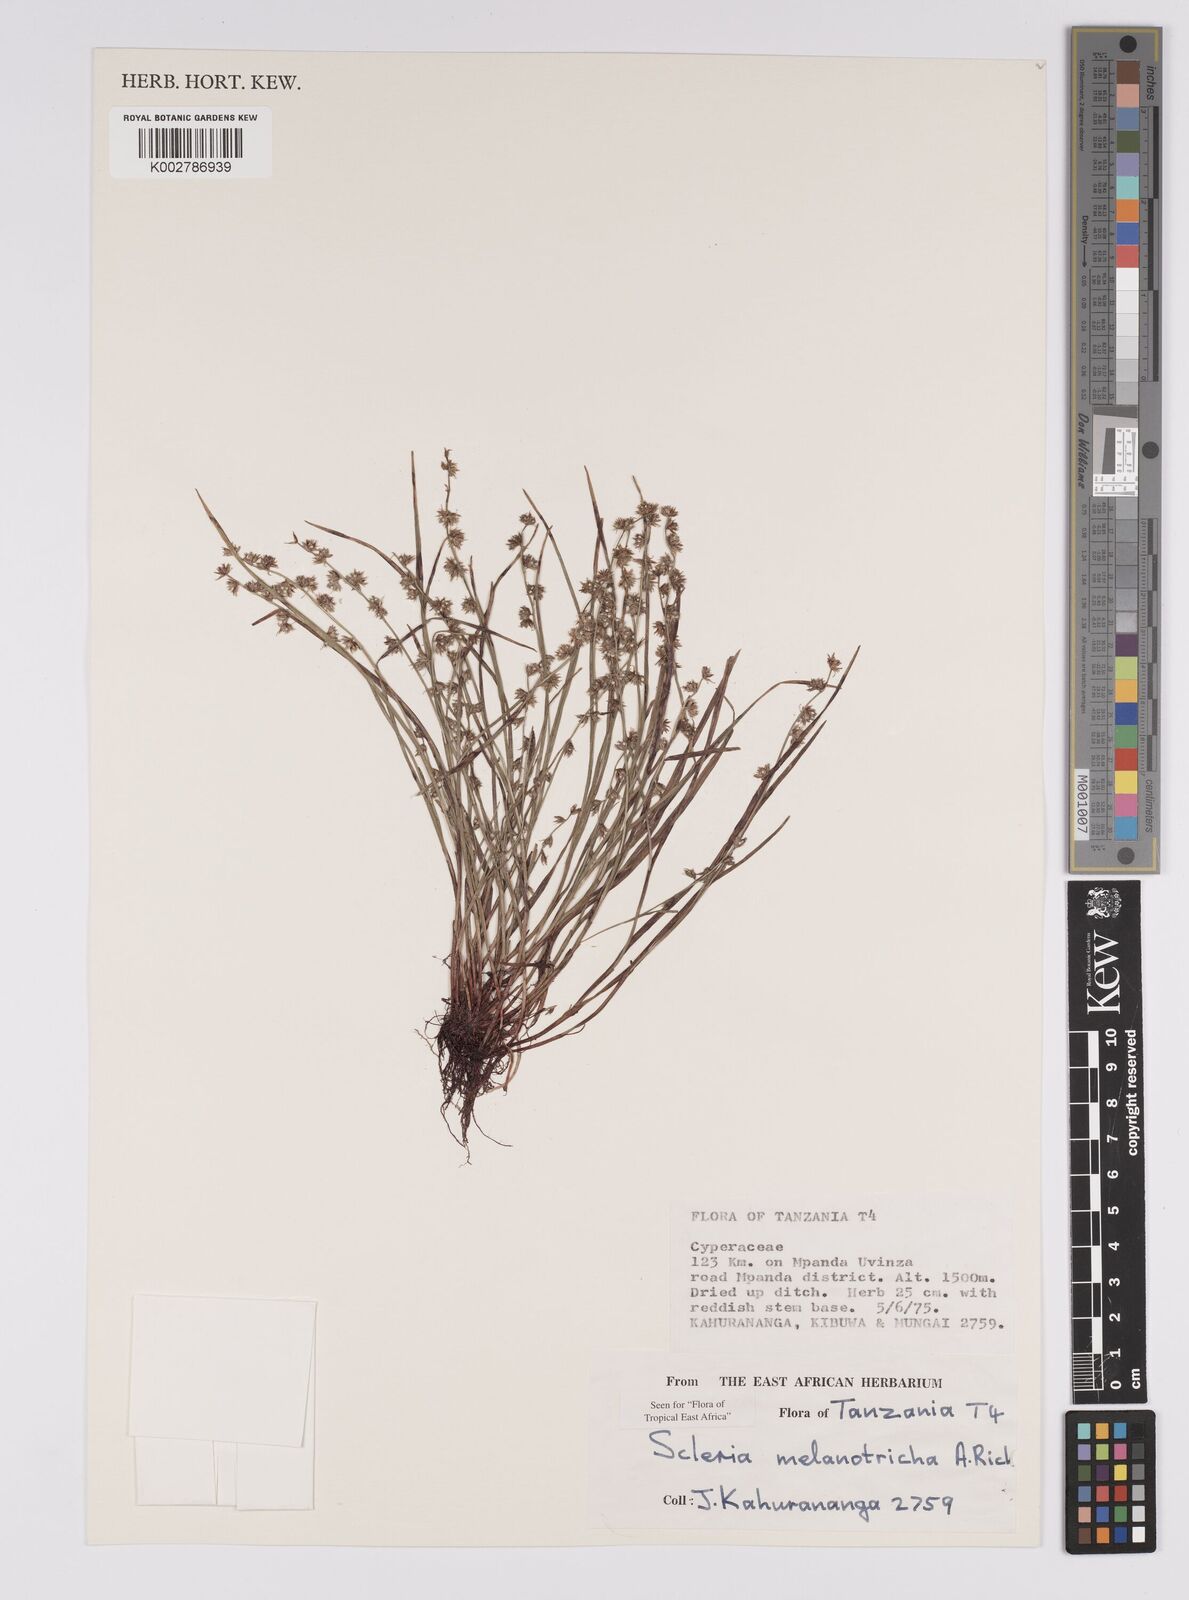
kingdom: Plantae
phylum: Tracheophyta
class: Liliopsida
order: Poales
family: Cyperaceae
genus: Scleria
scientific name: Scleria melanotricha
